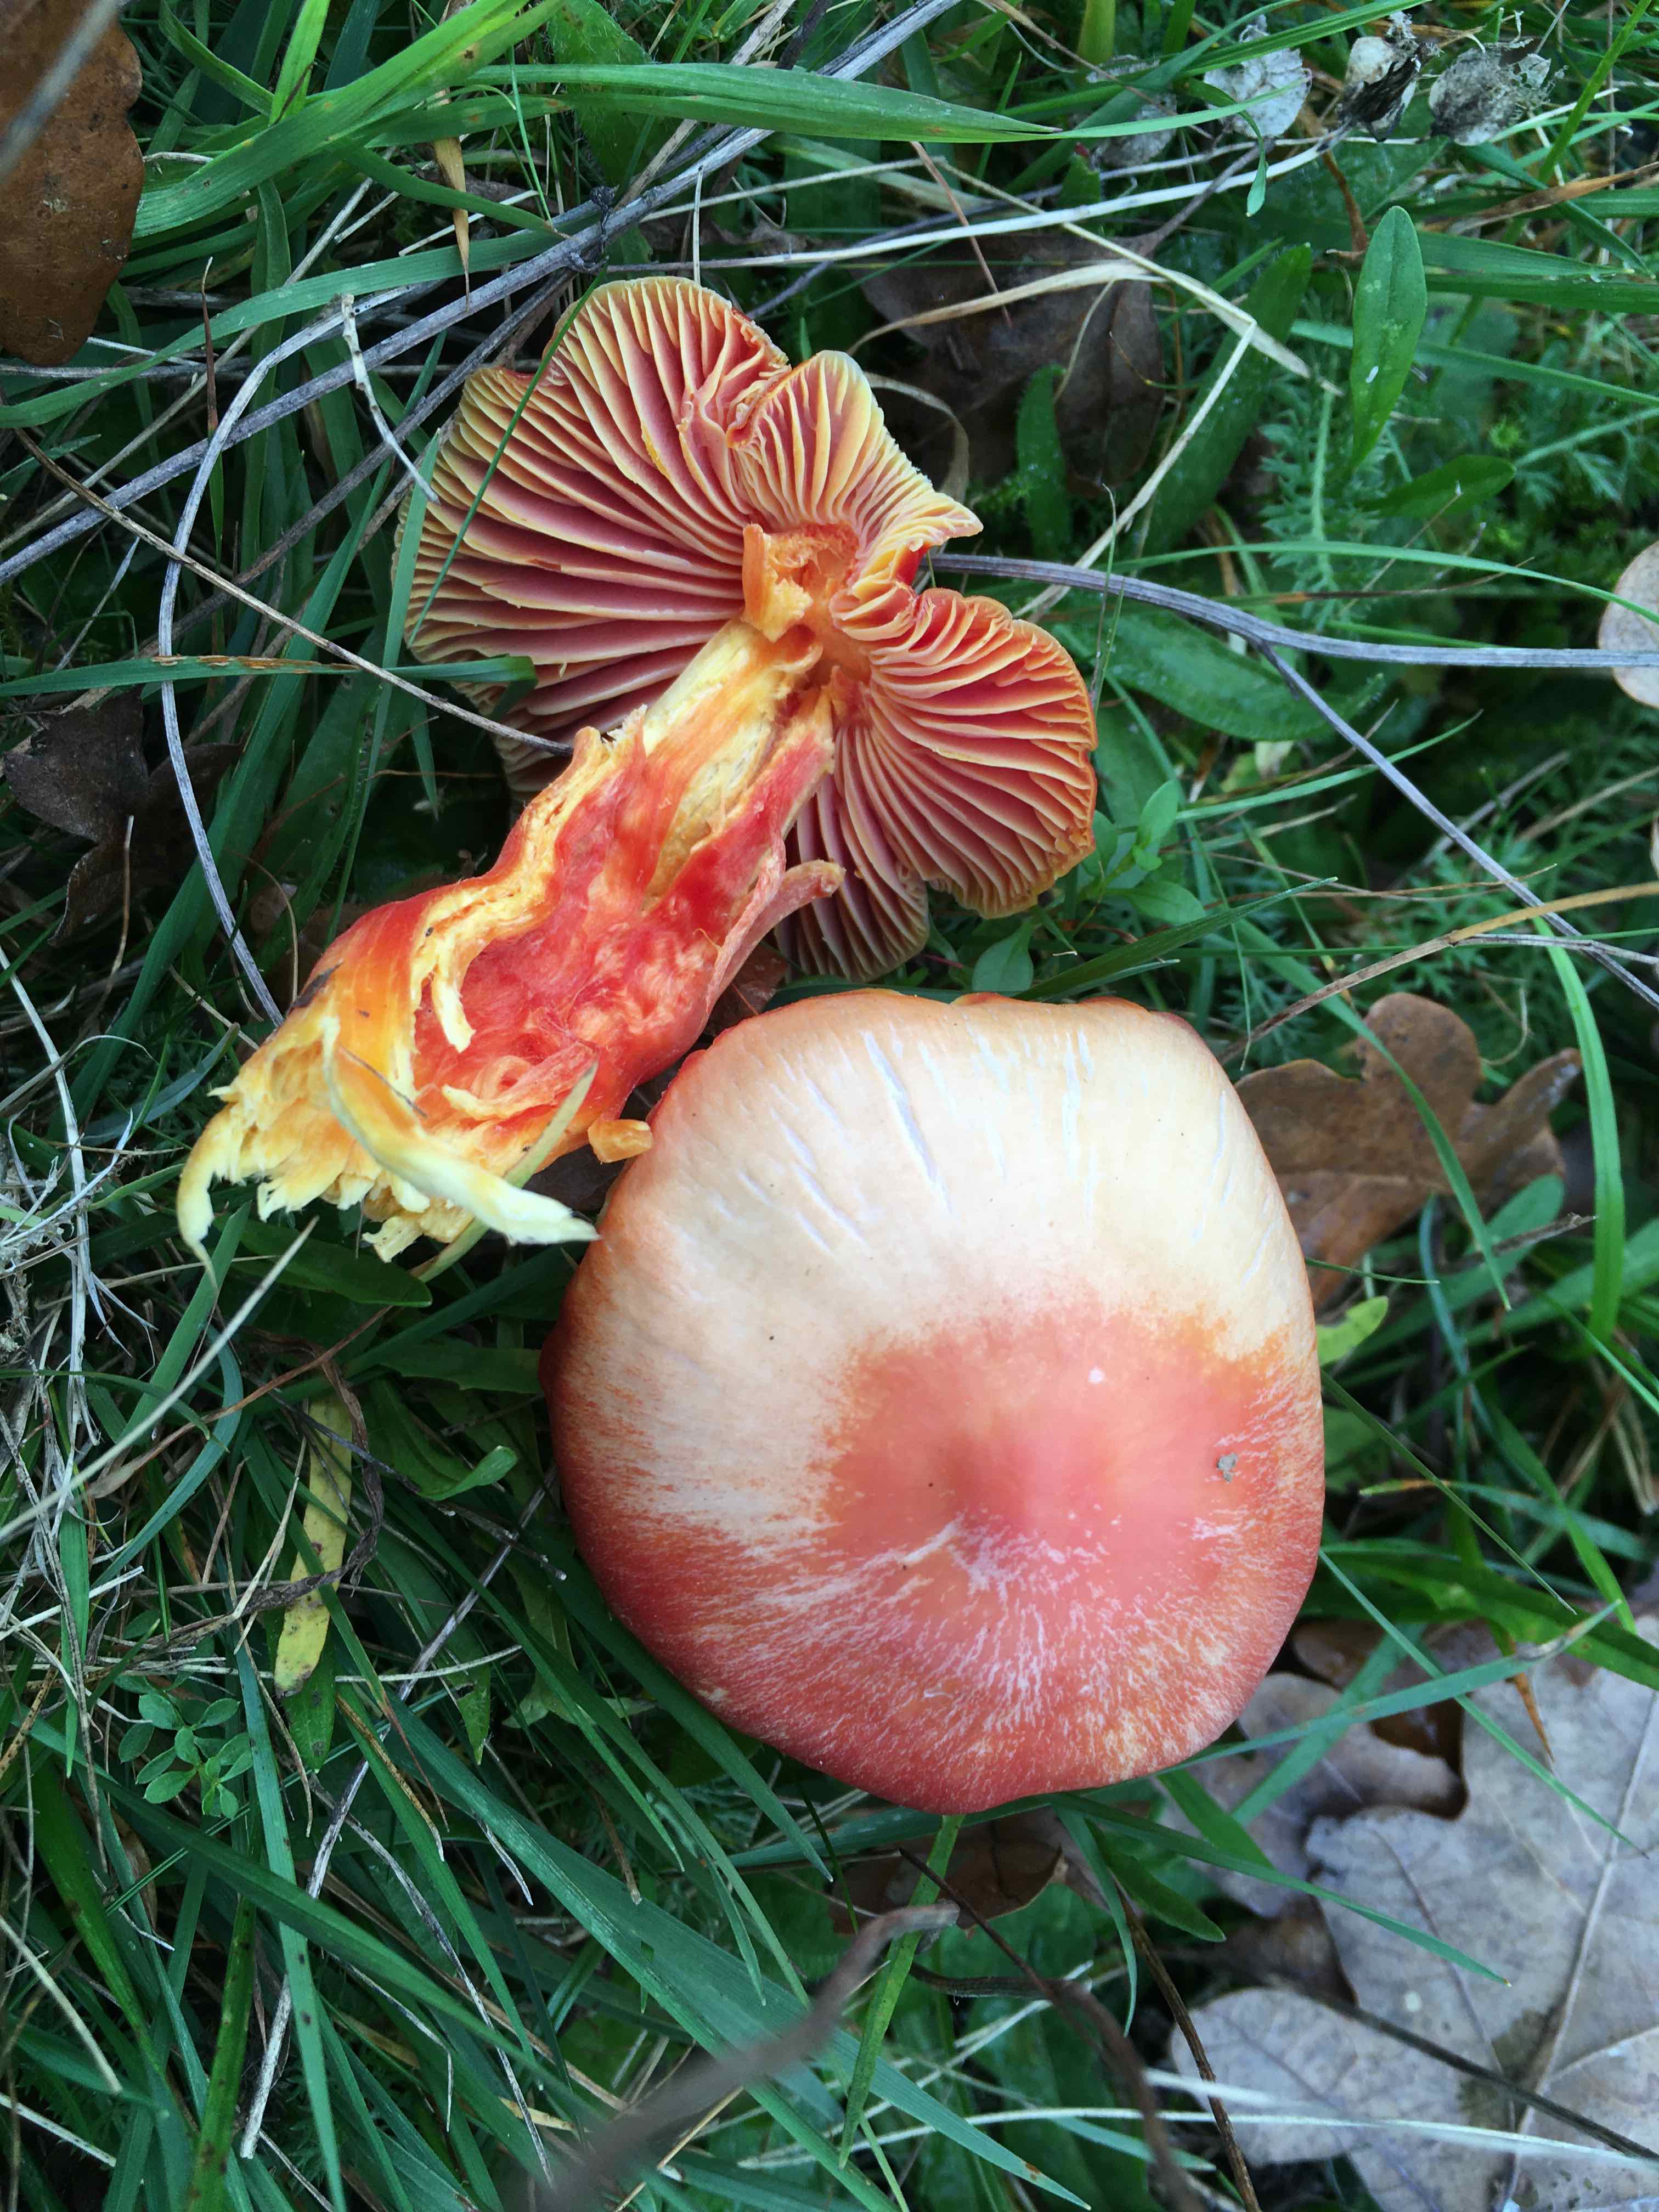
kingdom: Fungi
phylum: Basidiomycota
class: Agaricomycetes
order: Agaricales
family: Hygrophoraceae
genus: Hygrocybe
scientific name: Hygrocybe splendidissima
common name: knaldrød vokshat
